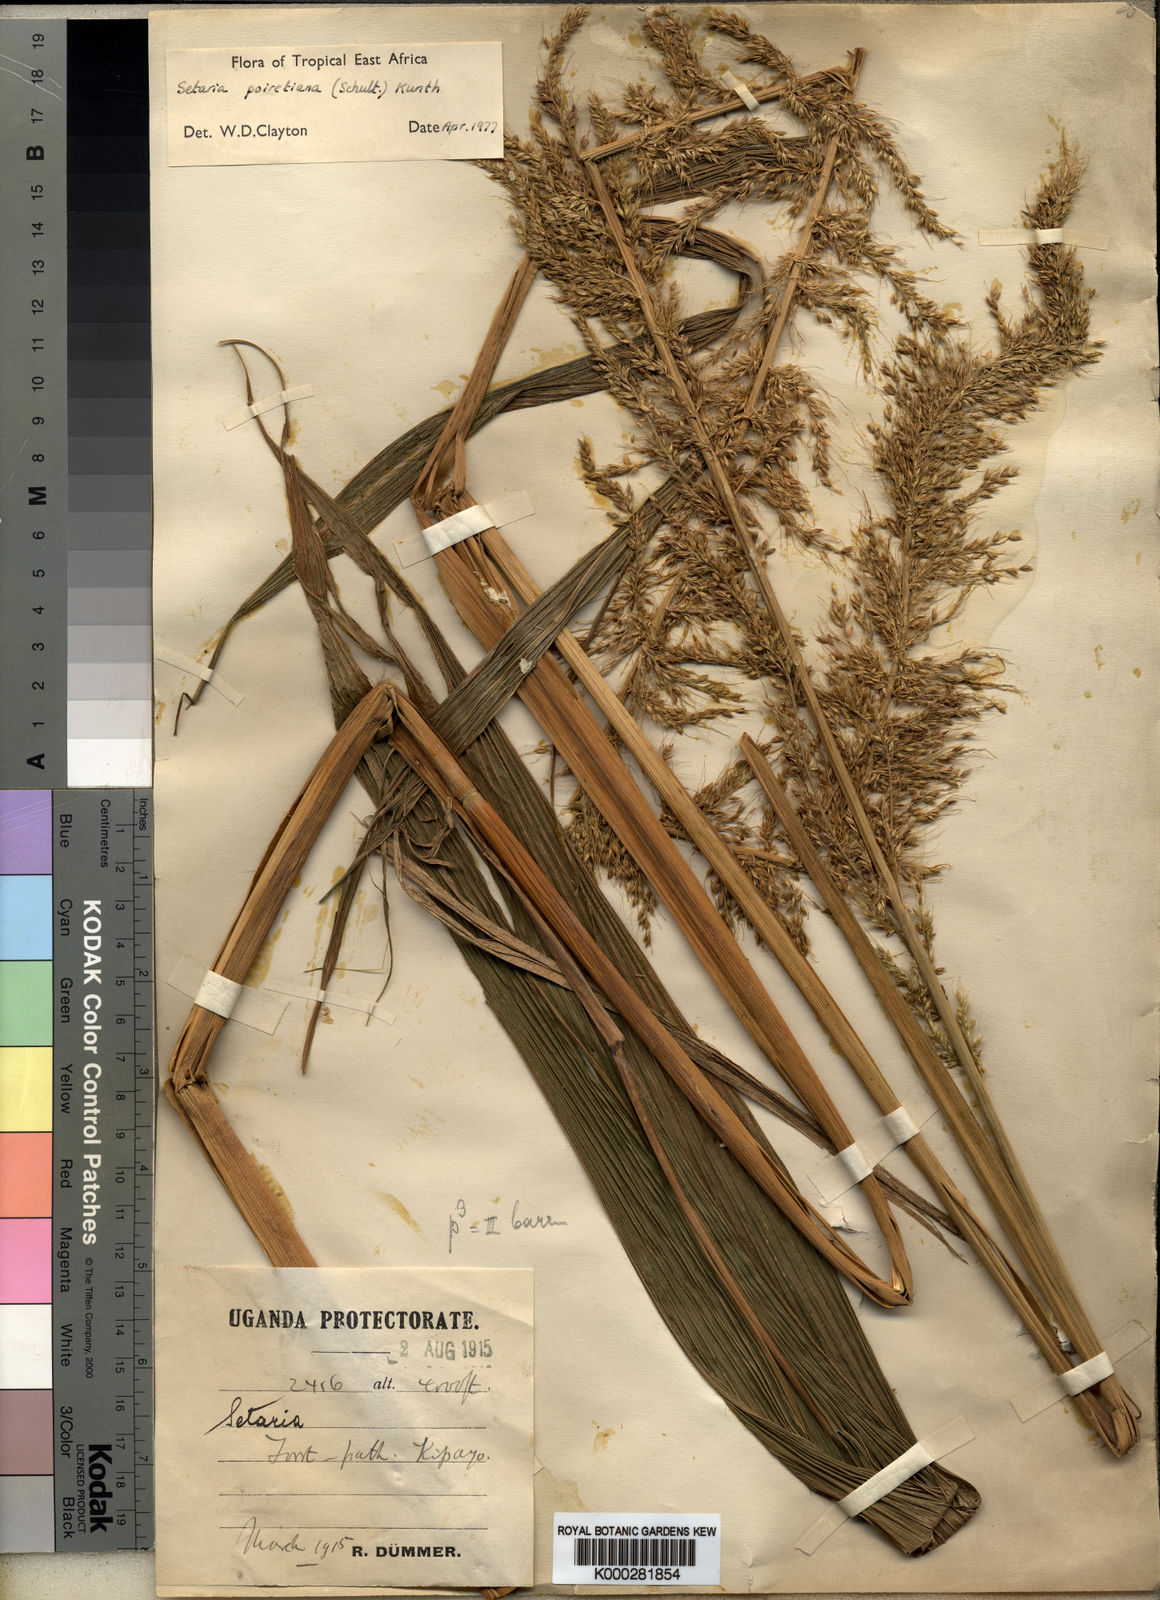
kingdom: Plantae
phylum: Tracheophyta
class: Liliopsida
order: Poales
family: Poaceae
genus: Setaria
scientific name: Setaria poiretiana
